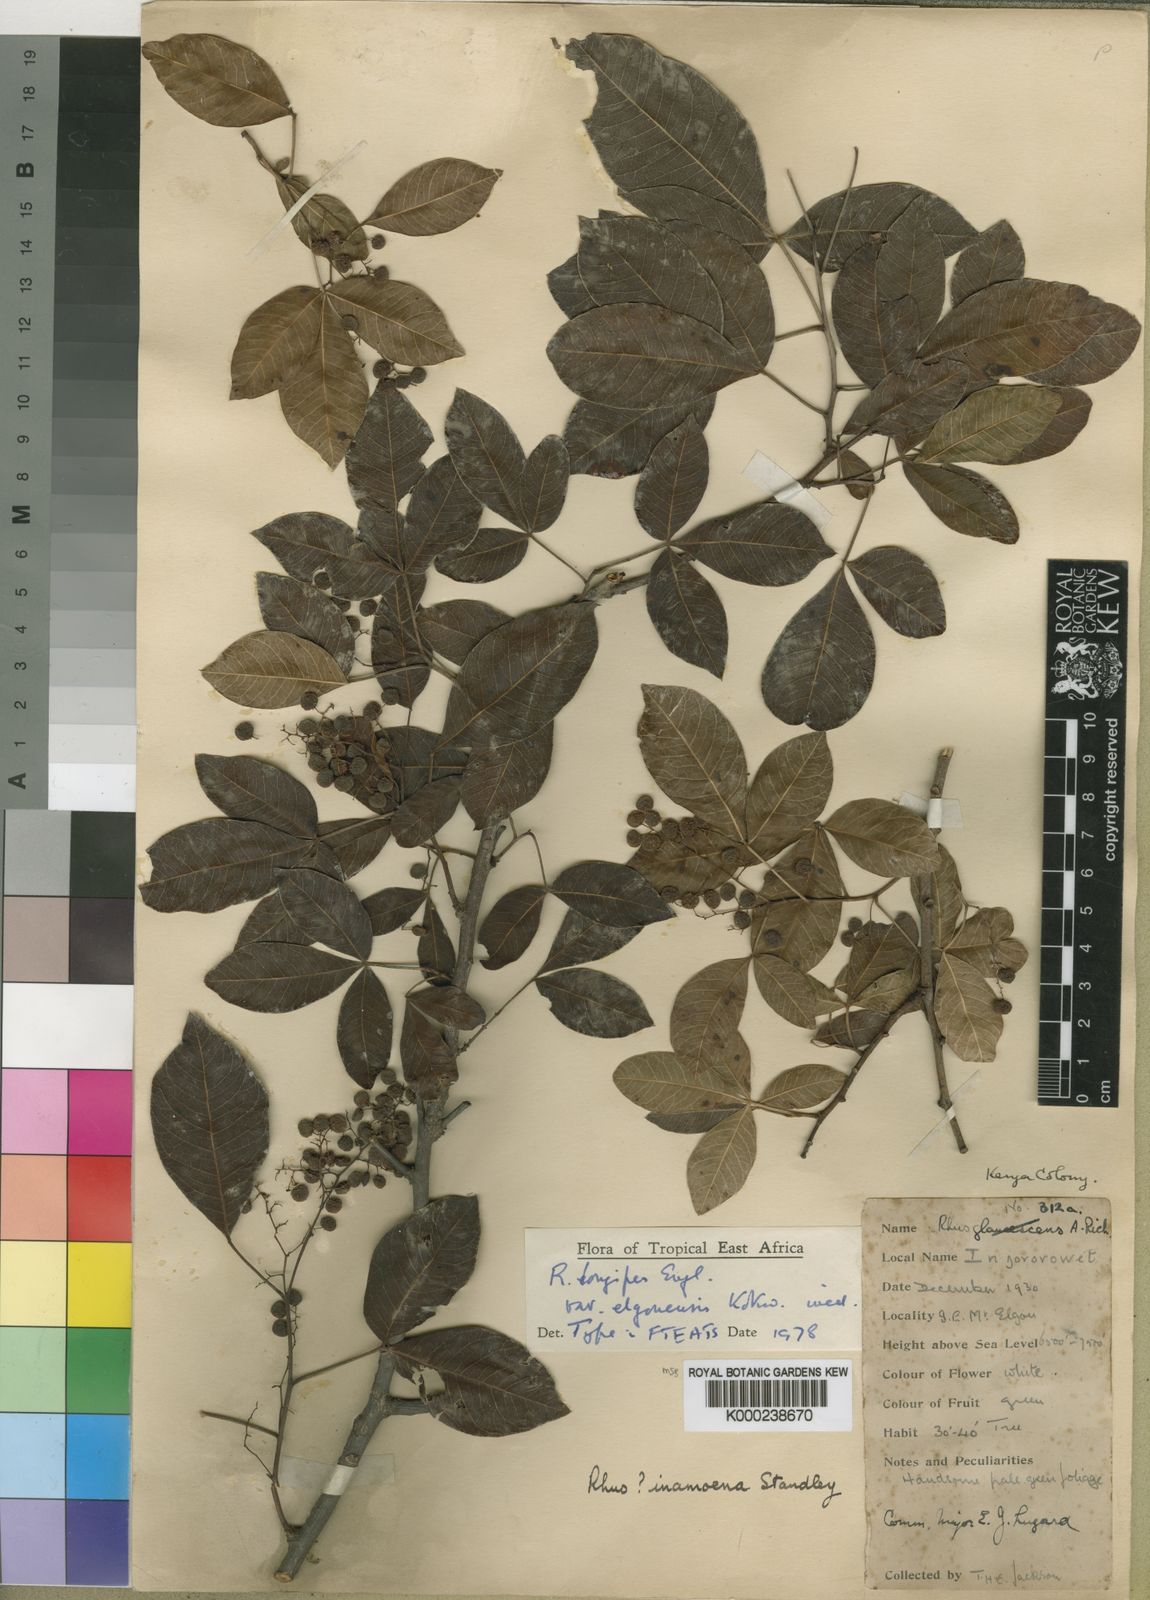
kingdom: Plantae
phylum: Tracheophyta
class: Magnoliopsida
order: Sapindales
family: Anacardiaceae
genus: Searsia
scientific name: Searsia longipes
